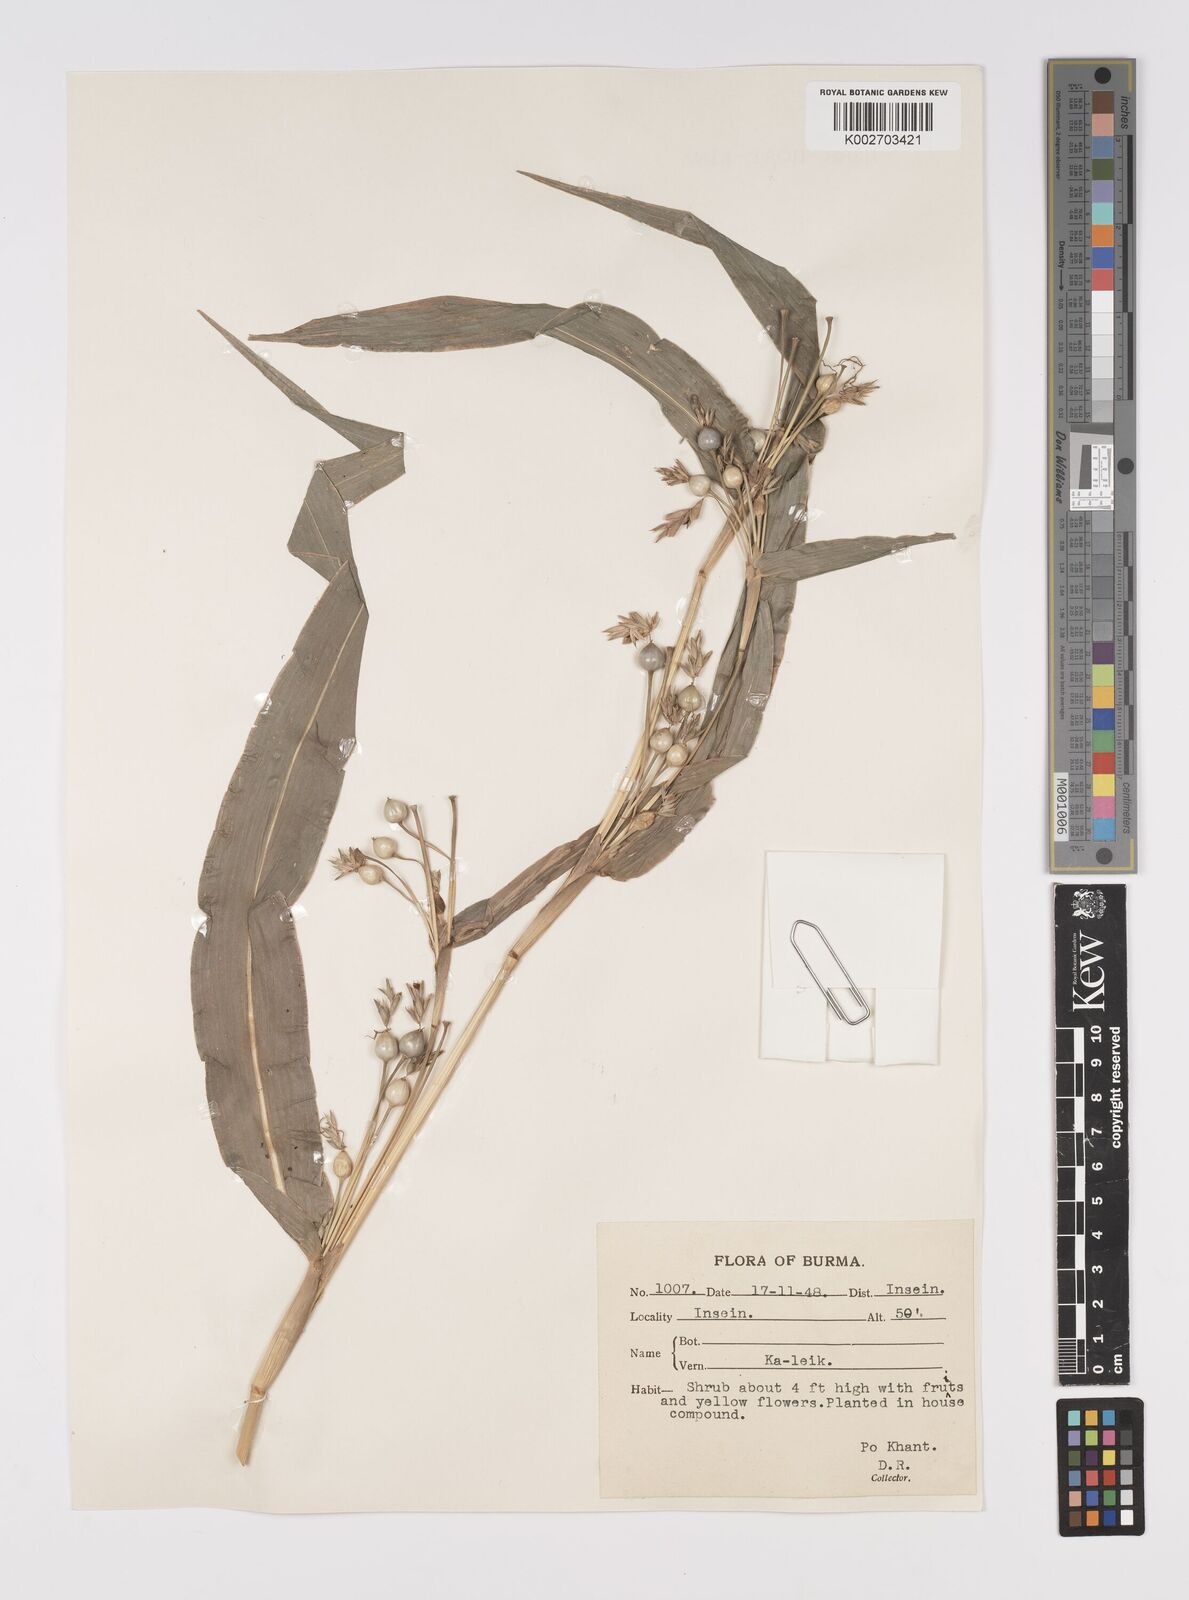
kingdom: Plantae
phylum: Tracheophyta
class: Liliopsida
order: Poales
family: Poaceae
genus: Coix
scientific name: Coix lacryma-jobi
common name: Job's tears
